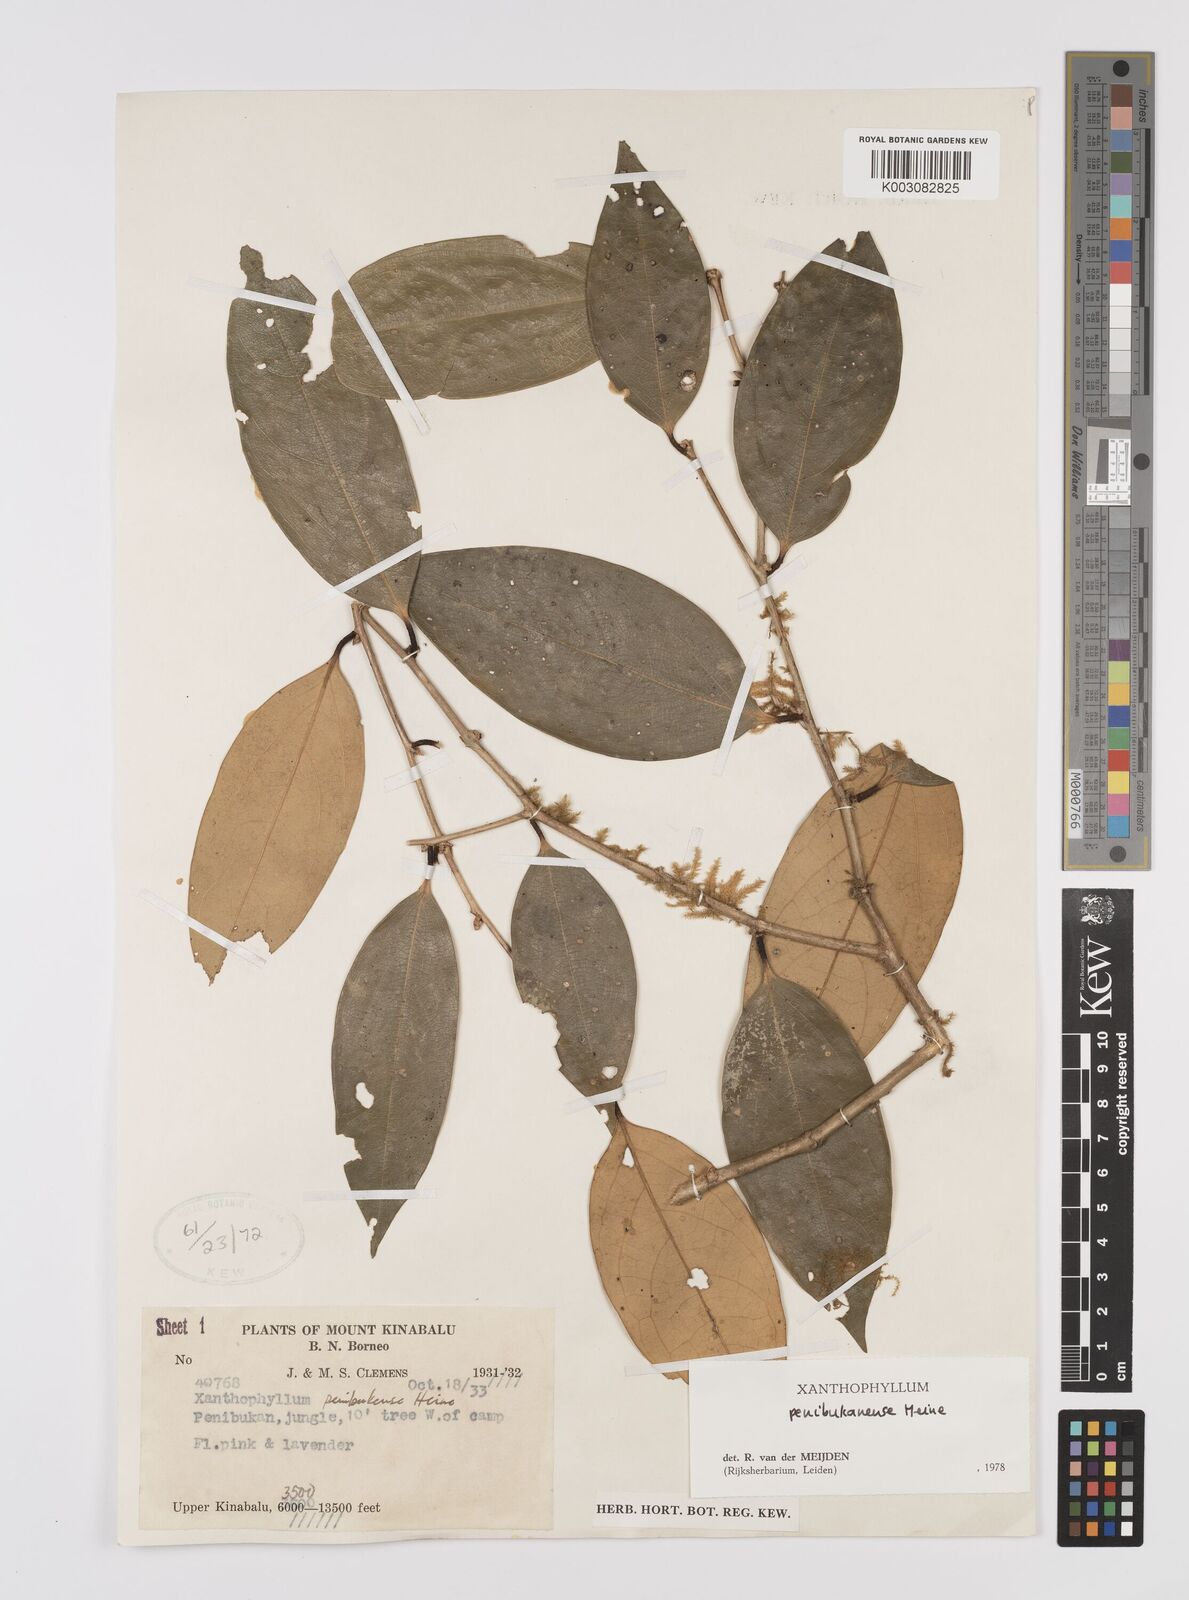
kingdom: Plantae
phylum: Tracheophyta
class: Magnoliopsida
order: Fabales
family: Polygalaceae
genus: Xanthophyllum
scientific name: Xanthophyllum penibukanense
